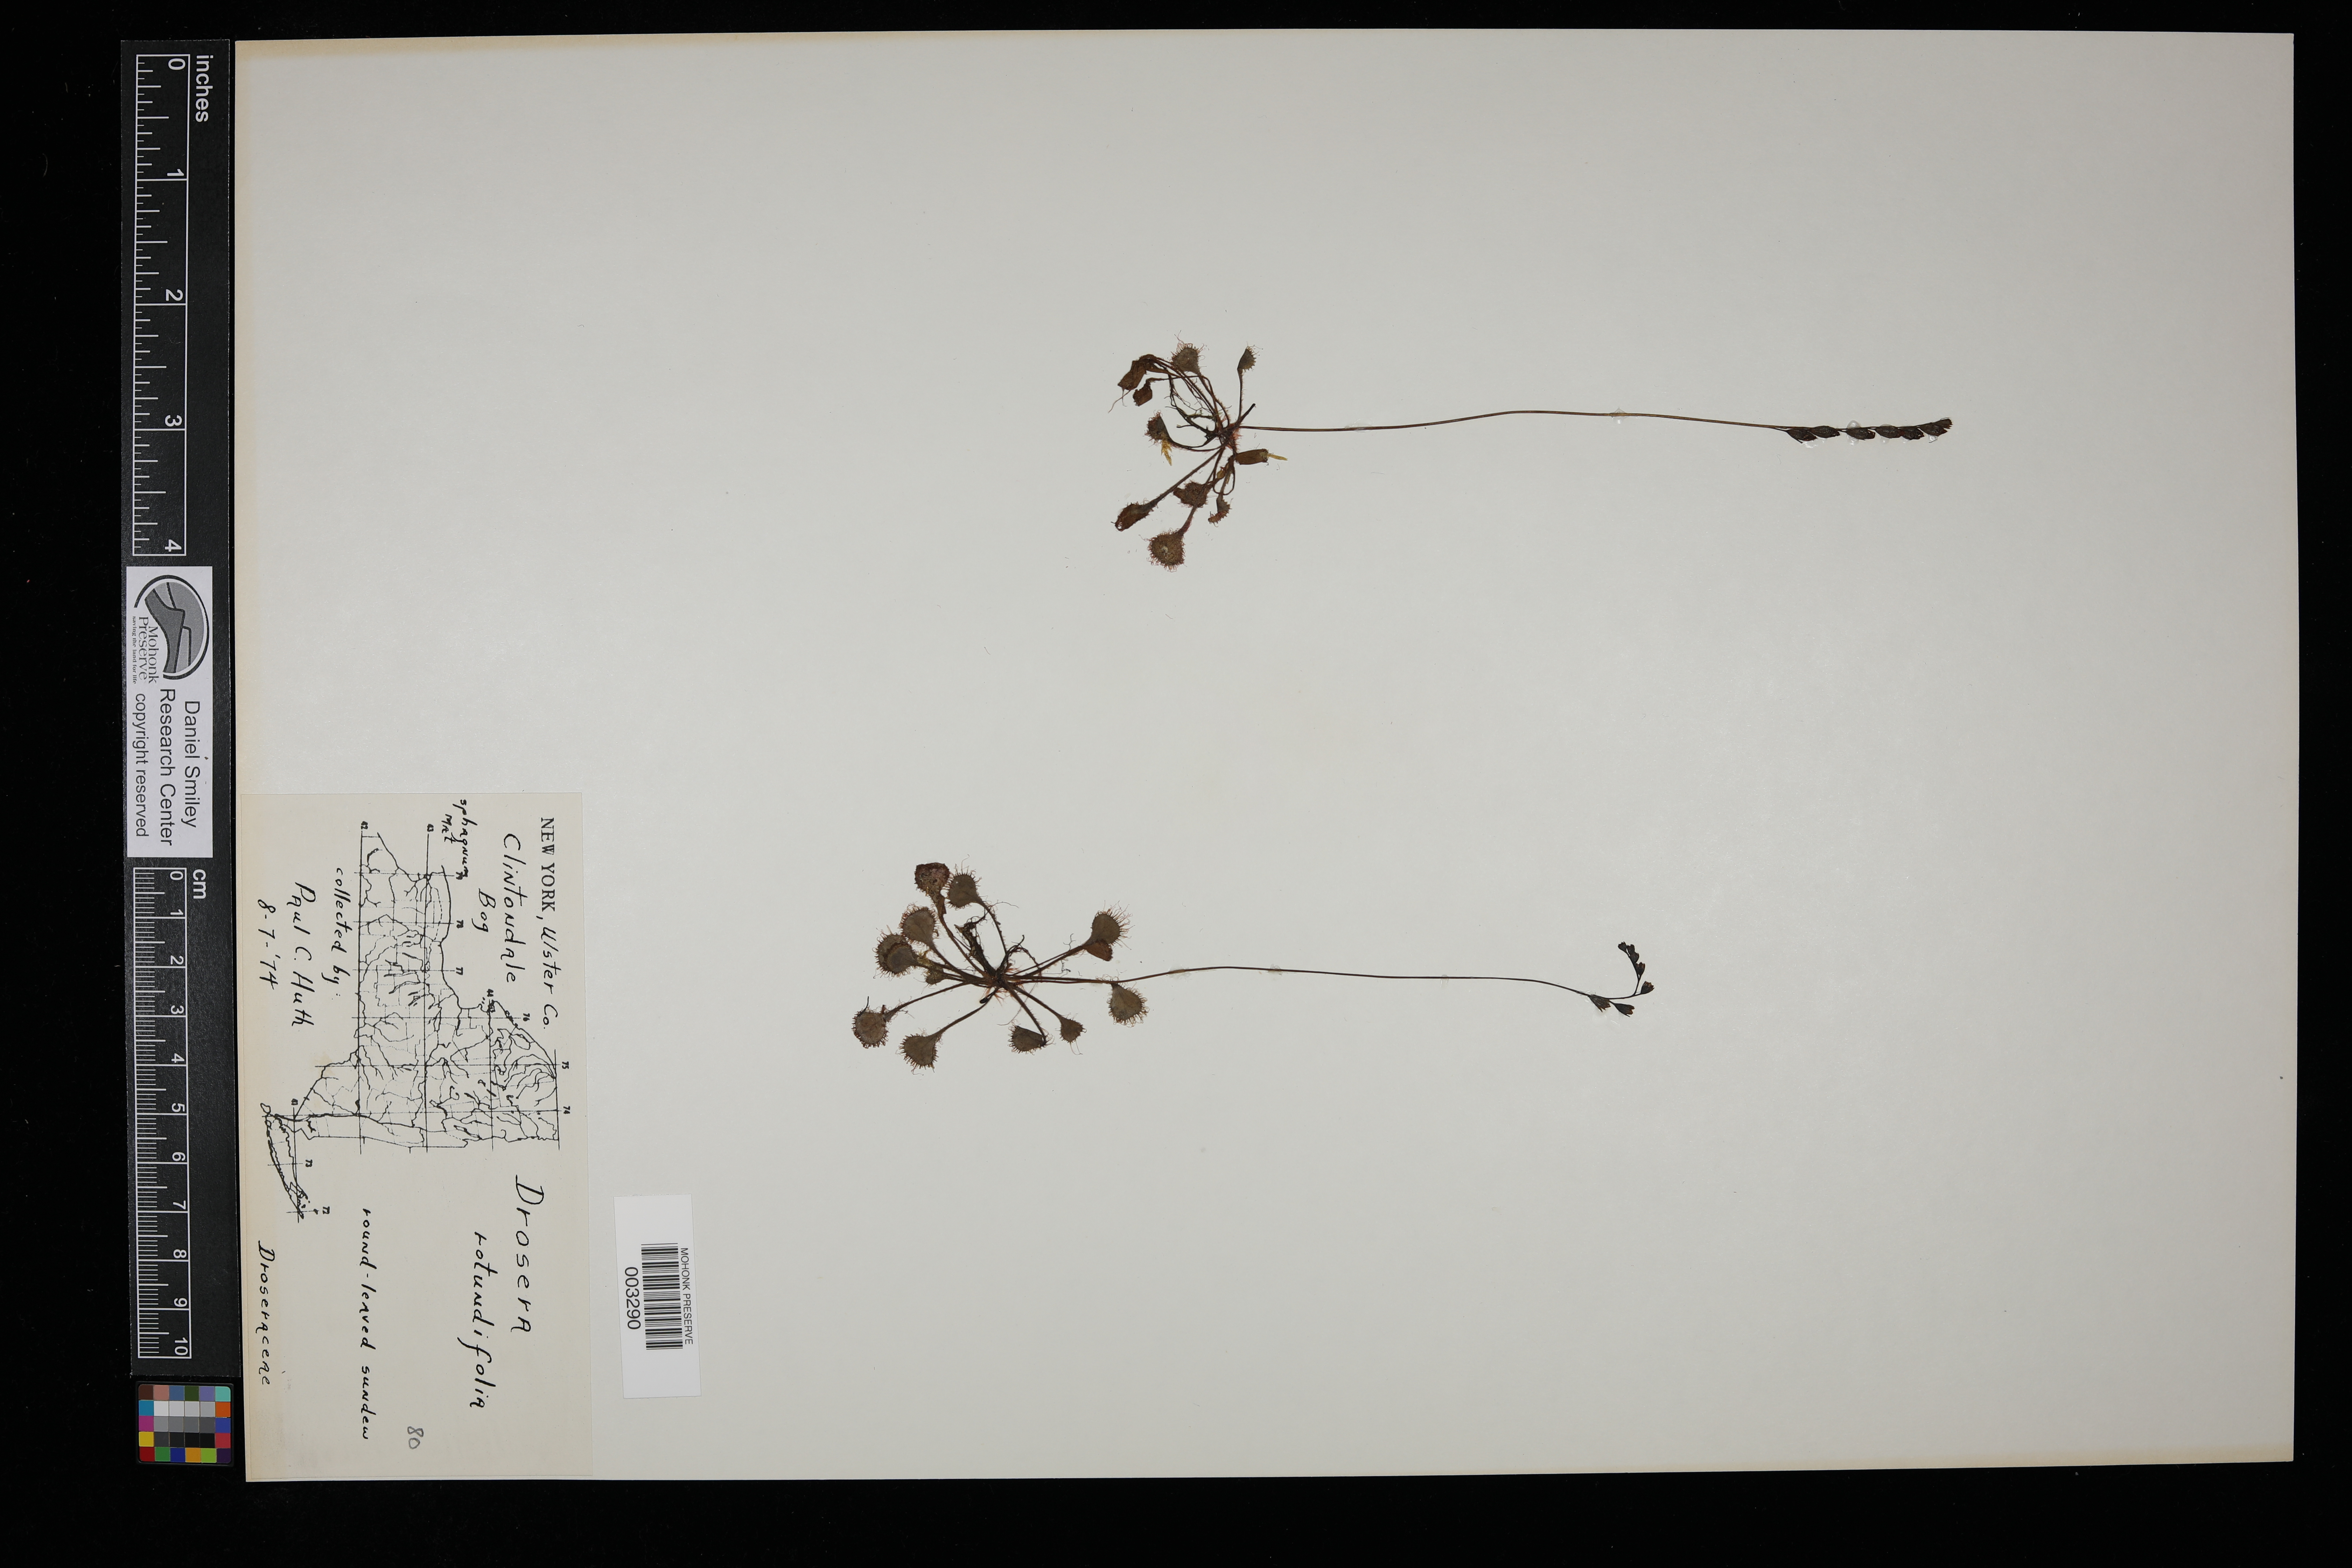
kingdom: Plantae
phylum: Tracheophyta
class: Magnoliopsida
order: Caryophyllales
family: Droseraceae
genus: Drosera
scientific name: Drosera rotundifolia
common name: Round-leaved sundew
